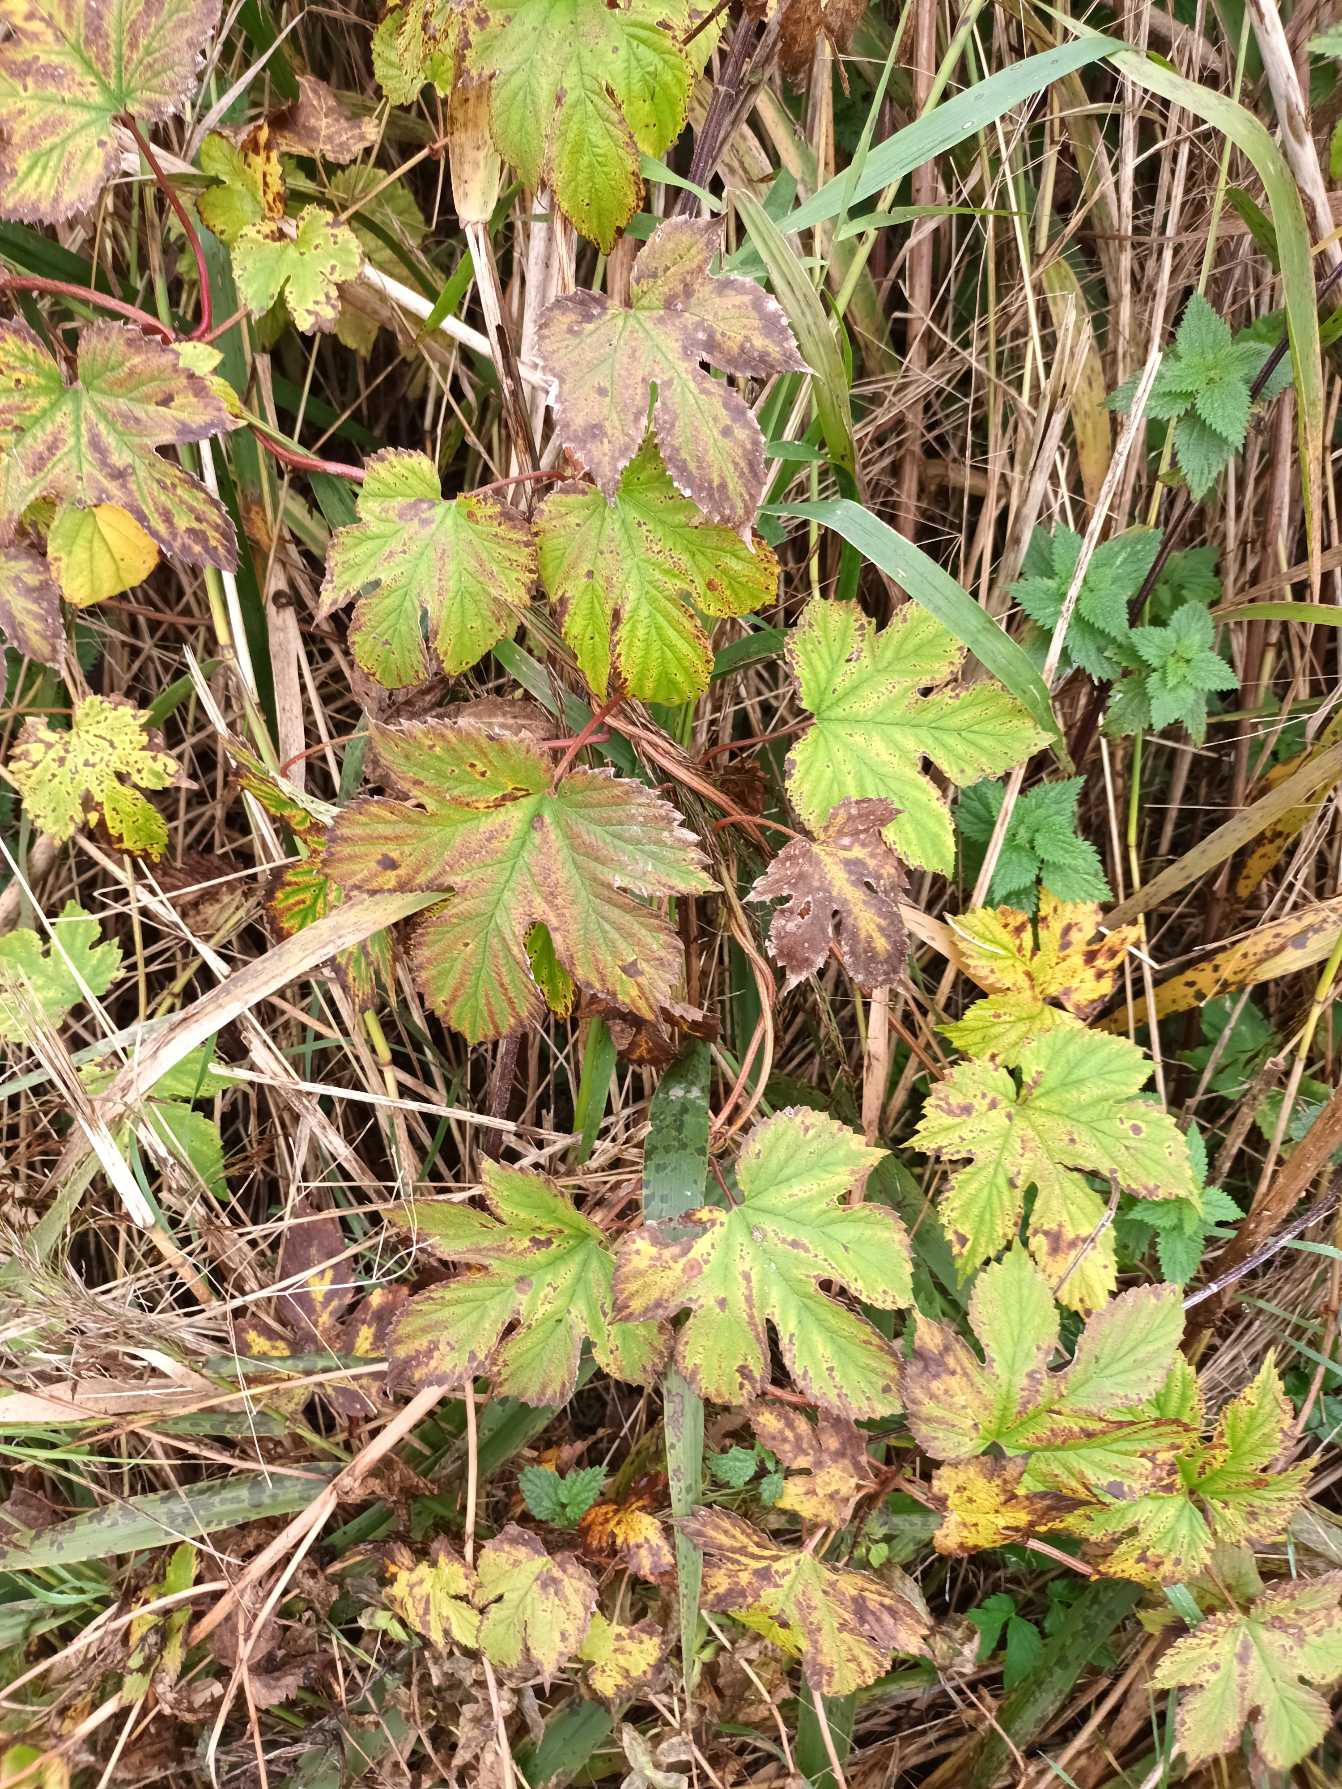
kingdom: Plantae
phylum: Tracheophyta
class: Magnoliopsida
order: Rosales
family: Cannabaceae
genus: Humulus
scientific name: Humulus lupulus
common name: Humle
